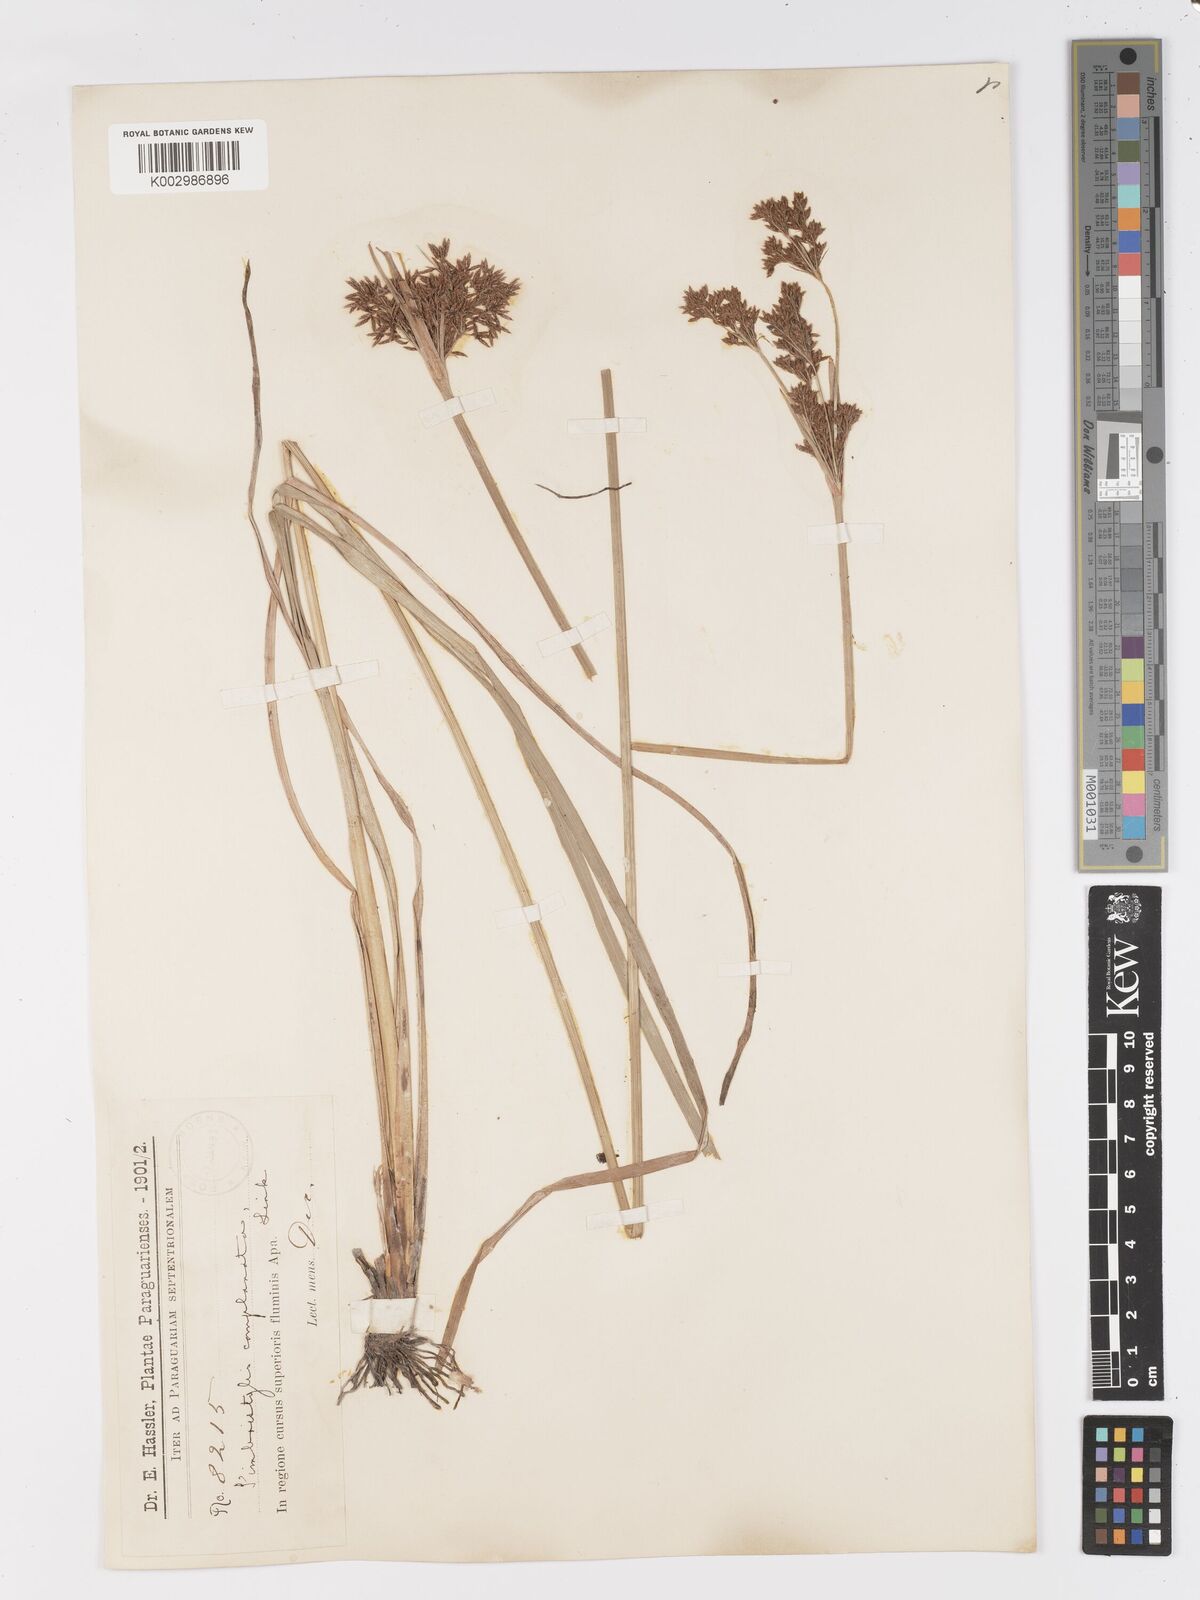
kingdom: Plantae
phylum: Tracheophyta
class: Liliopsida
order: Poales
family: Cyperaceae
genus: Fimbristylis
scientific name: Fimbristylis complanata
